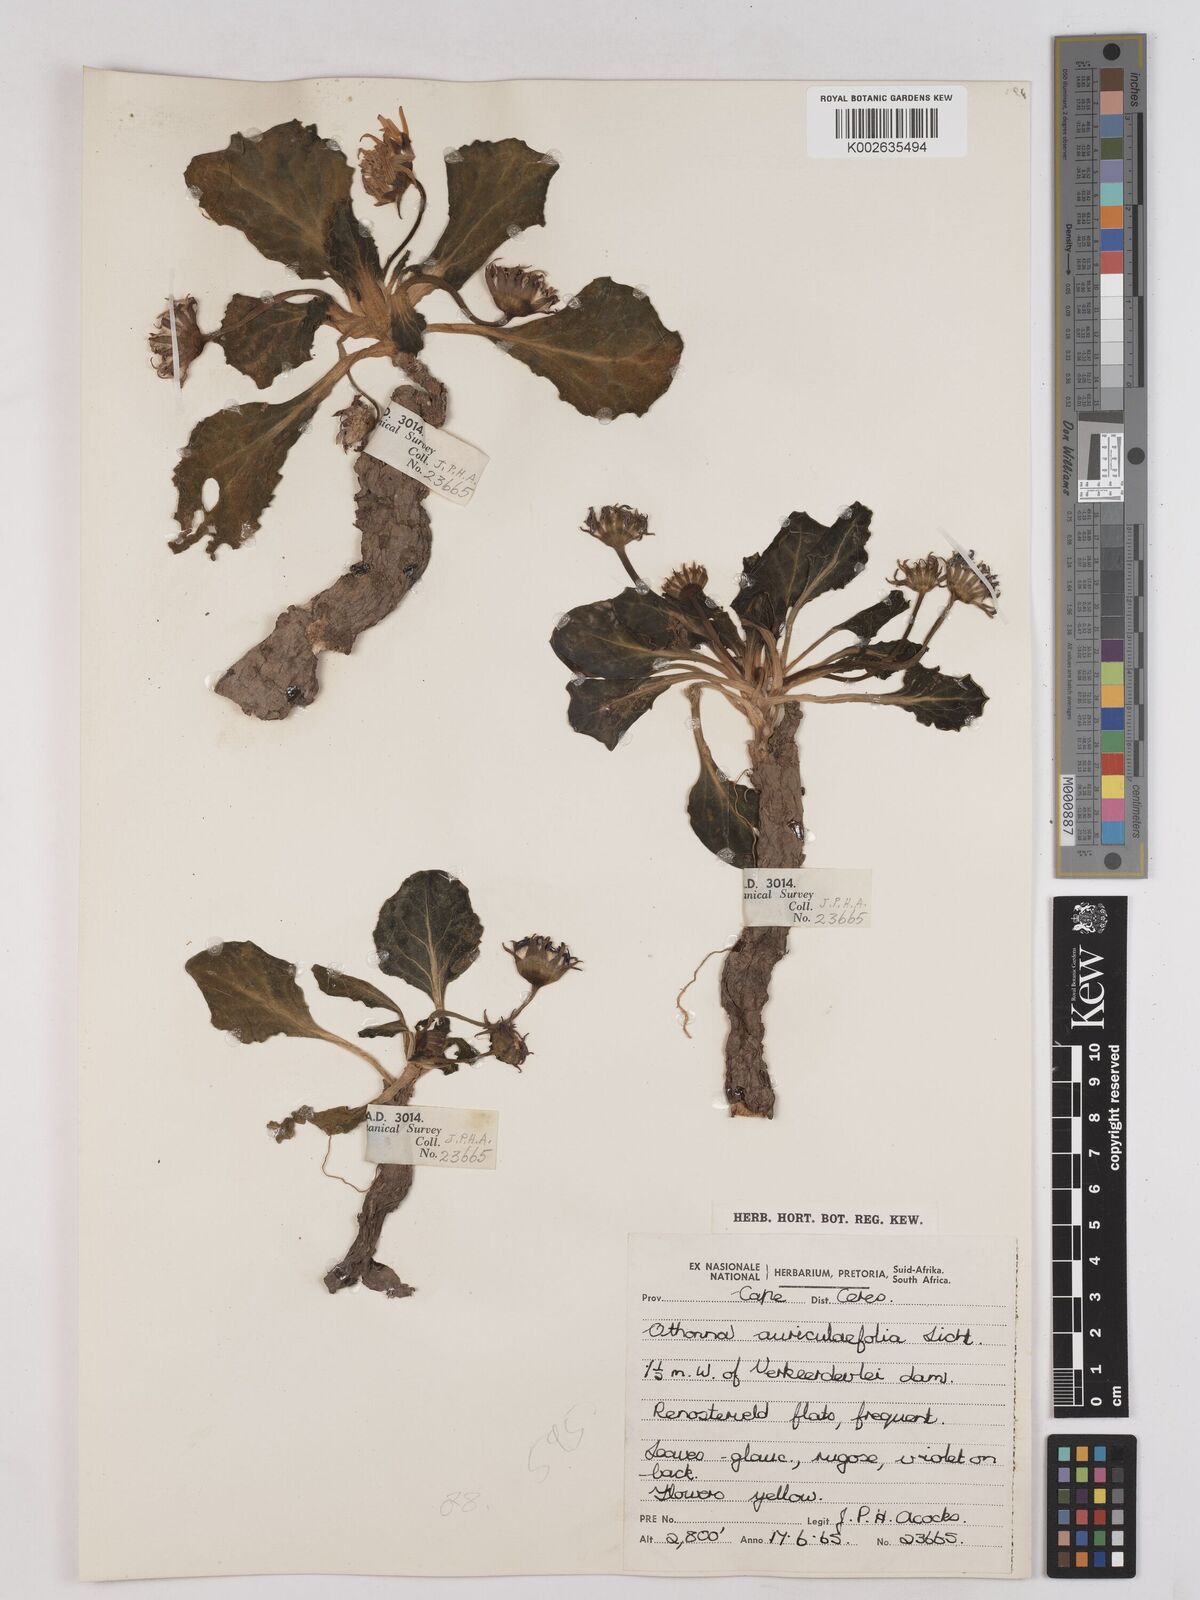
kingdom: Plantae
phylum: Tracheophyta
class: Magnoliopsida
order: Asterales
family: Asteraceae
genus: Othonna
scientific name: Othonna auriculifolia
